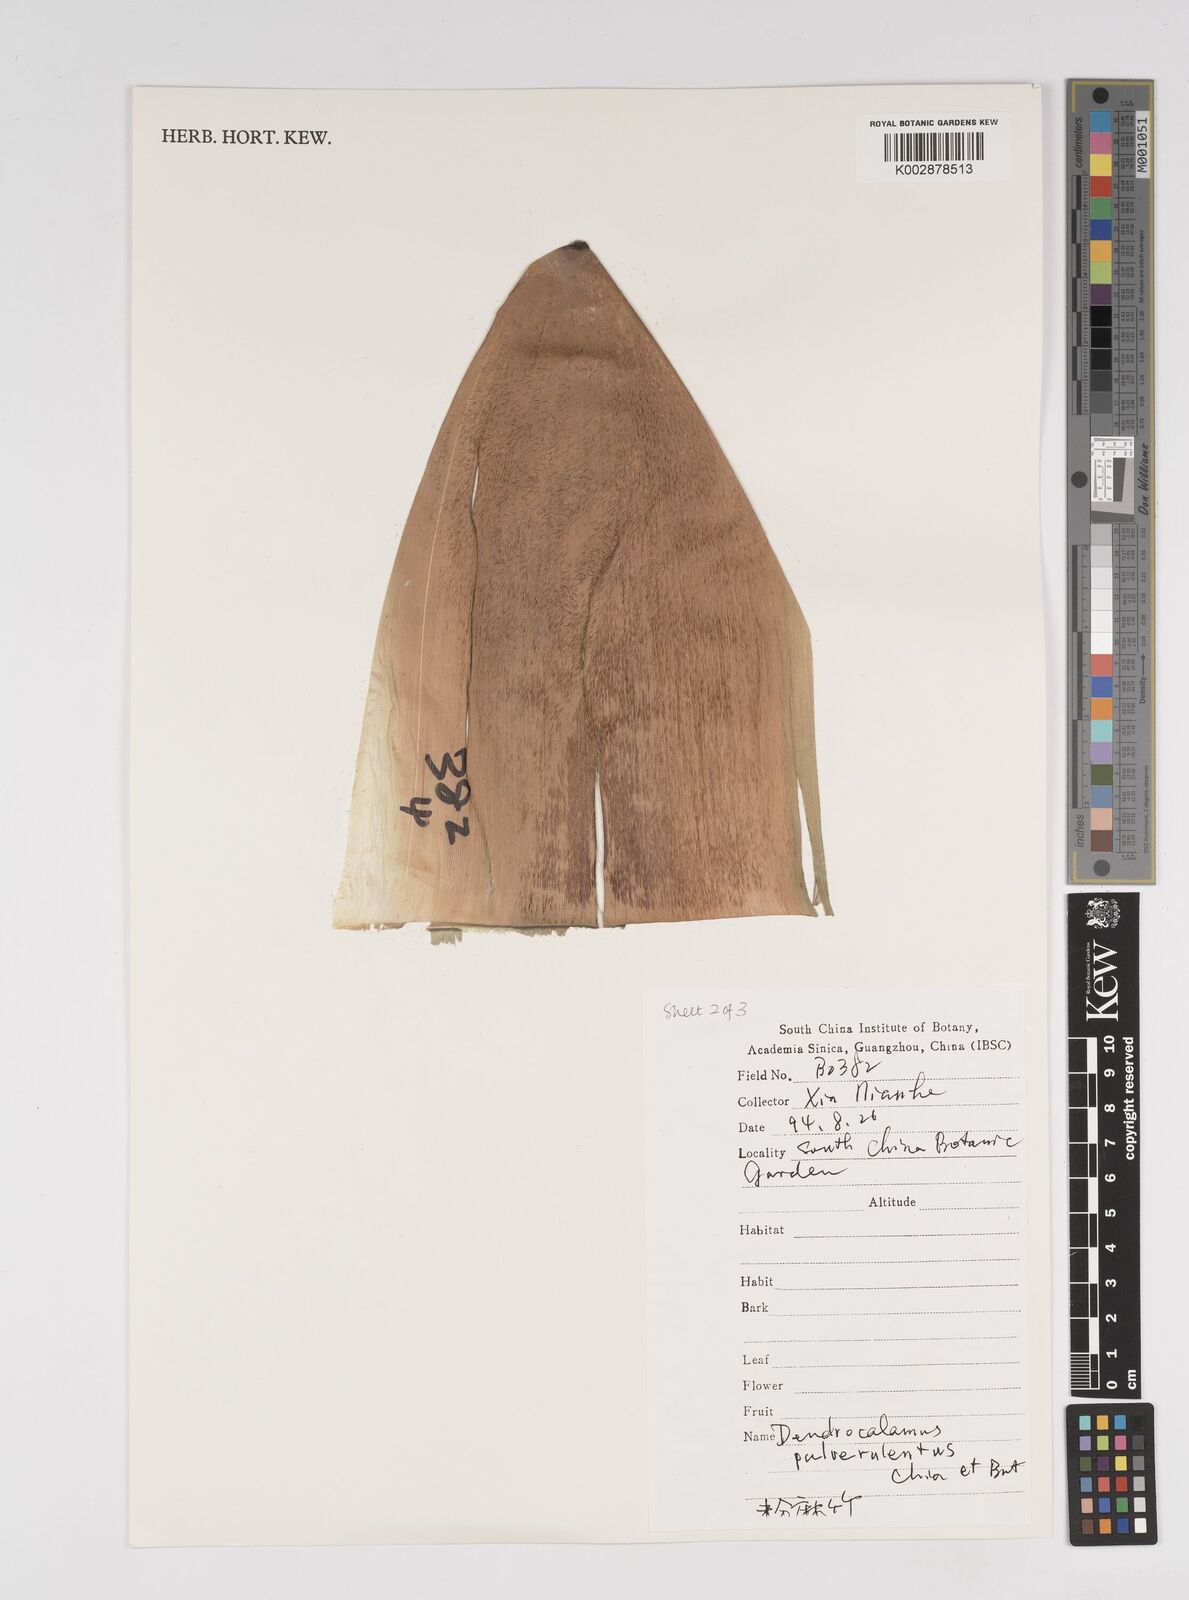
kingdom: Plantae
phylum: Tracheophyta
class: Liliopsida
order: Poales
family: Poaceae
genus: Dendrocalamus
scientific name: Dendrocalamus pulverulentus
